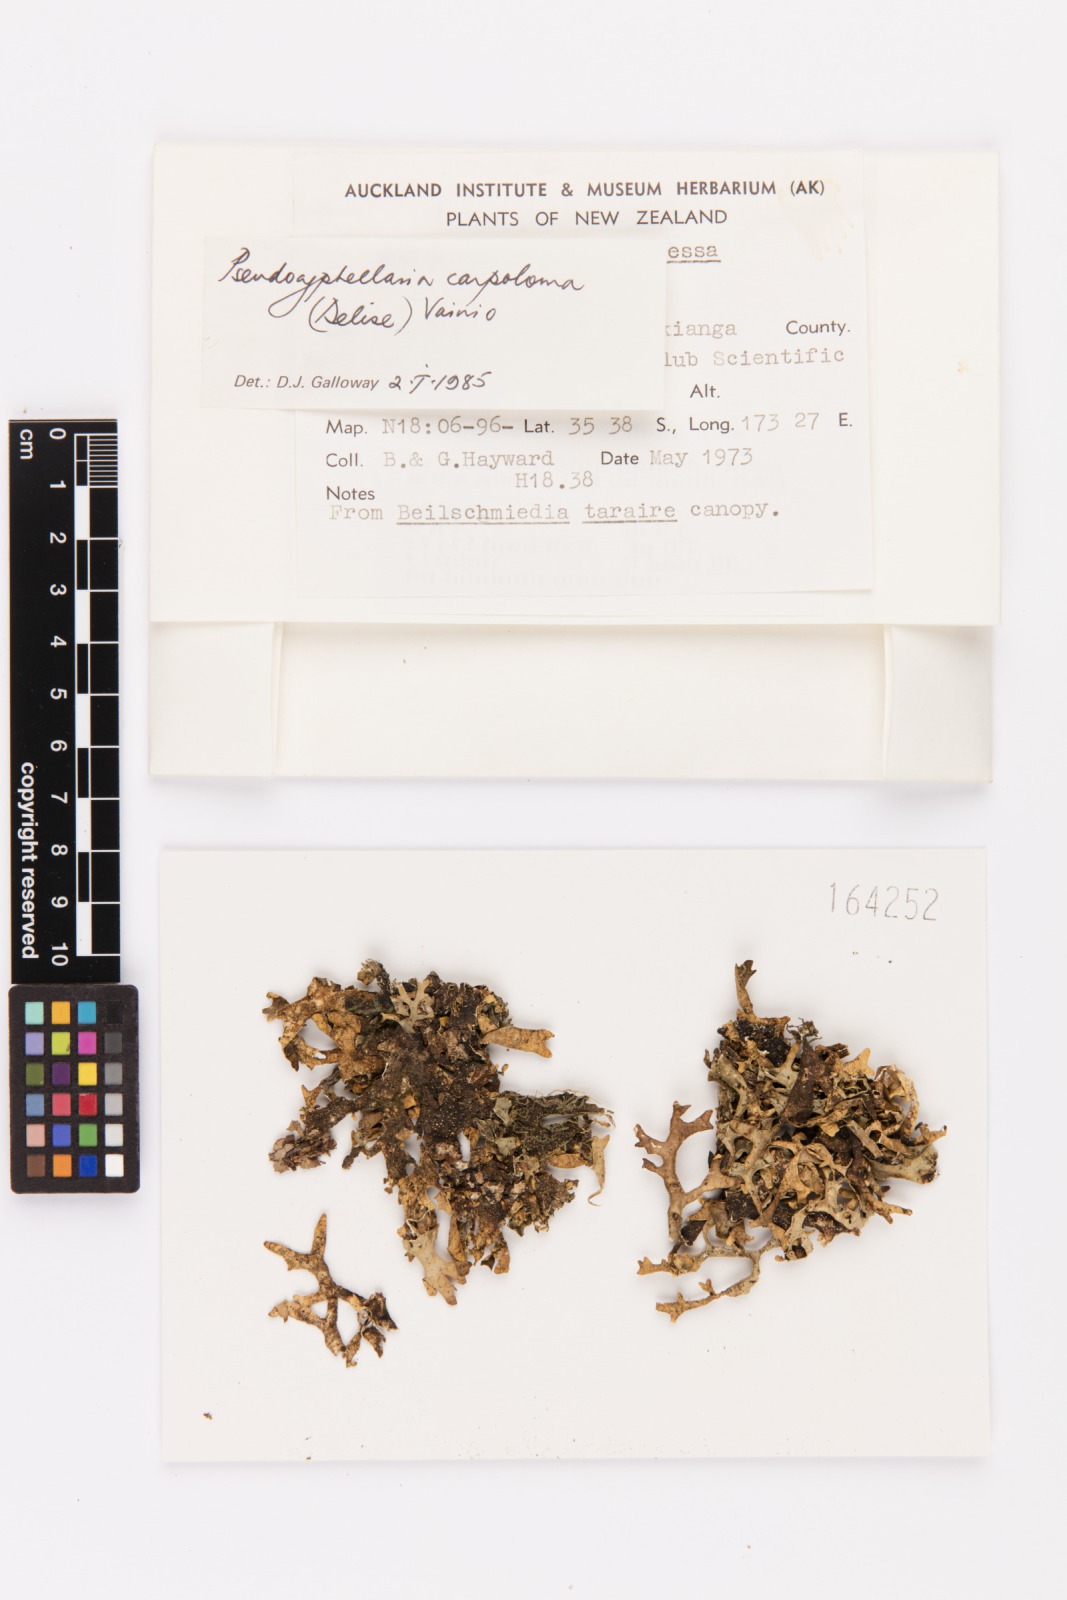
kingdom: Fungi
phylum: Ascomycota
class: Lecanoromycetes
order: Peltigerales
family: Lobariaceae
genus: Pseudocyphellaria
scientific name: Pseudocyphellaria carpoloma
